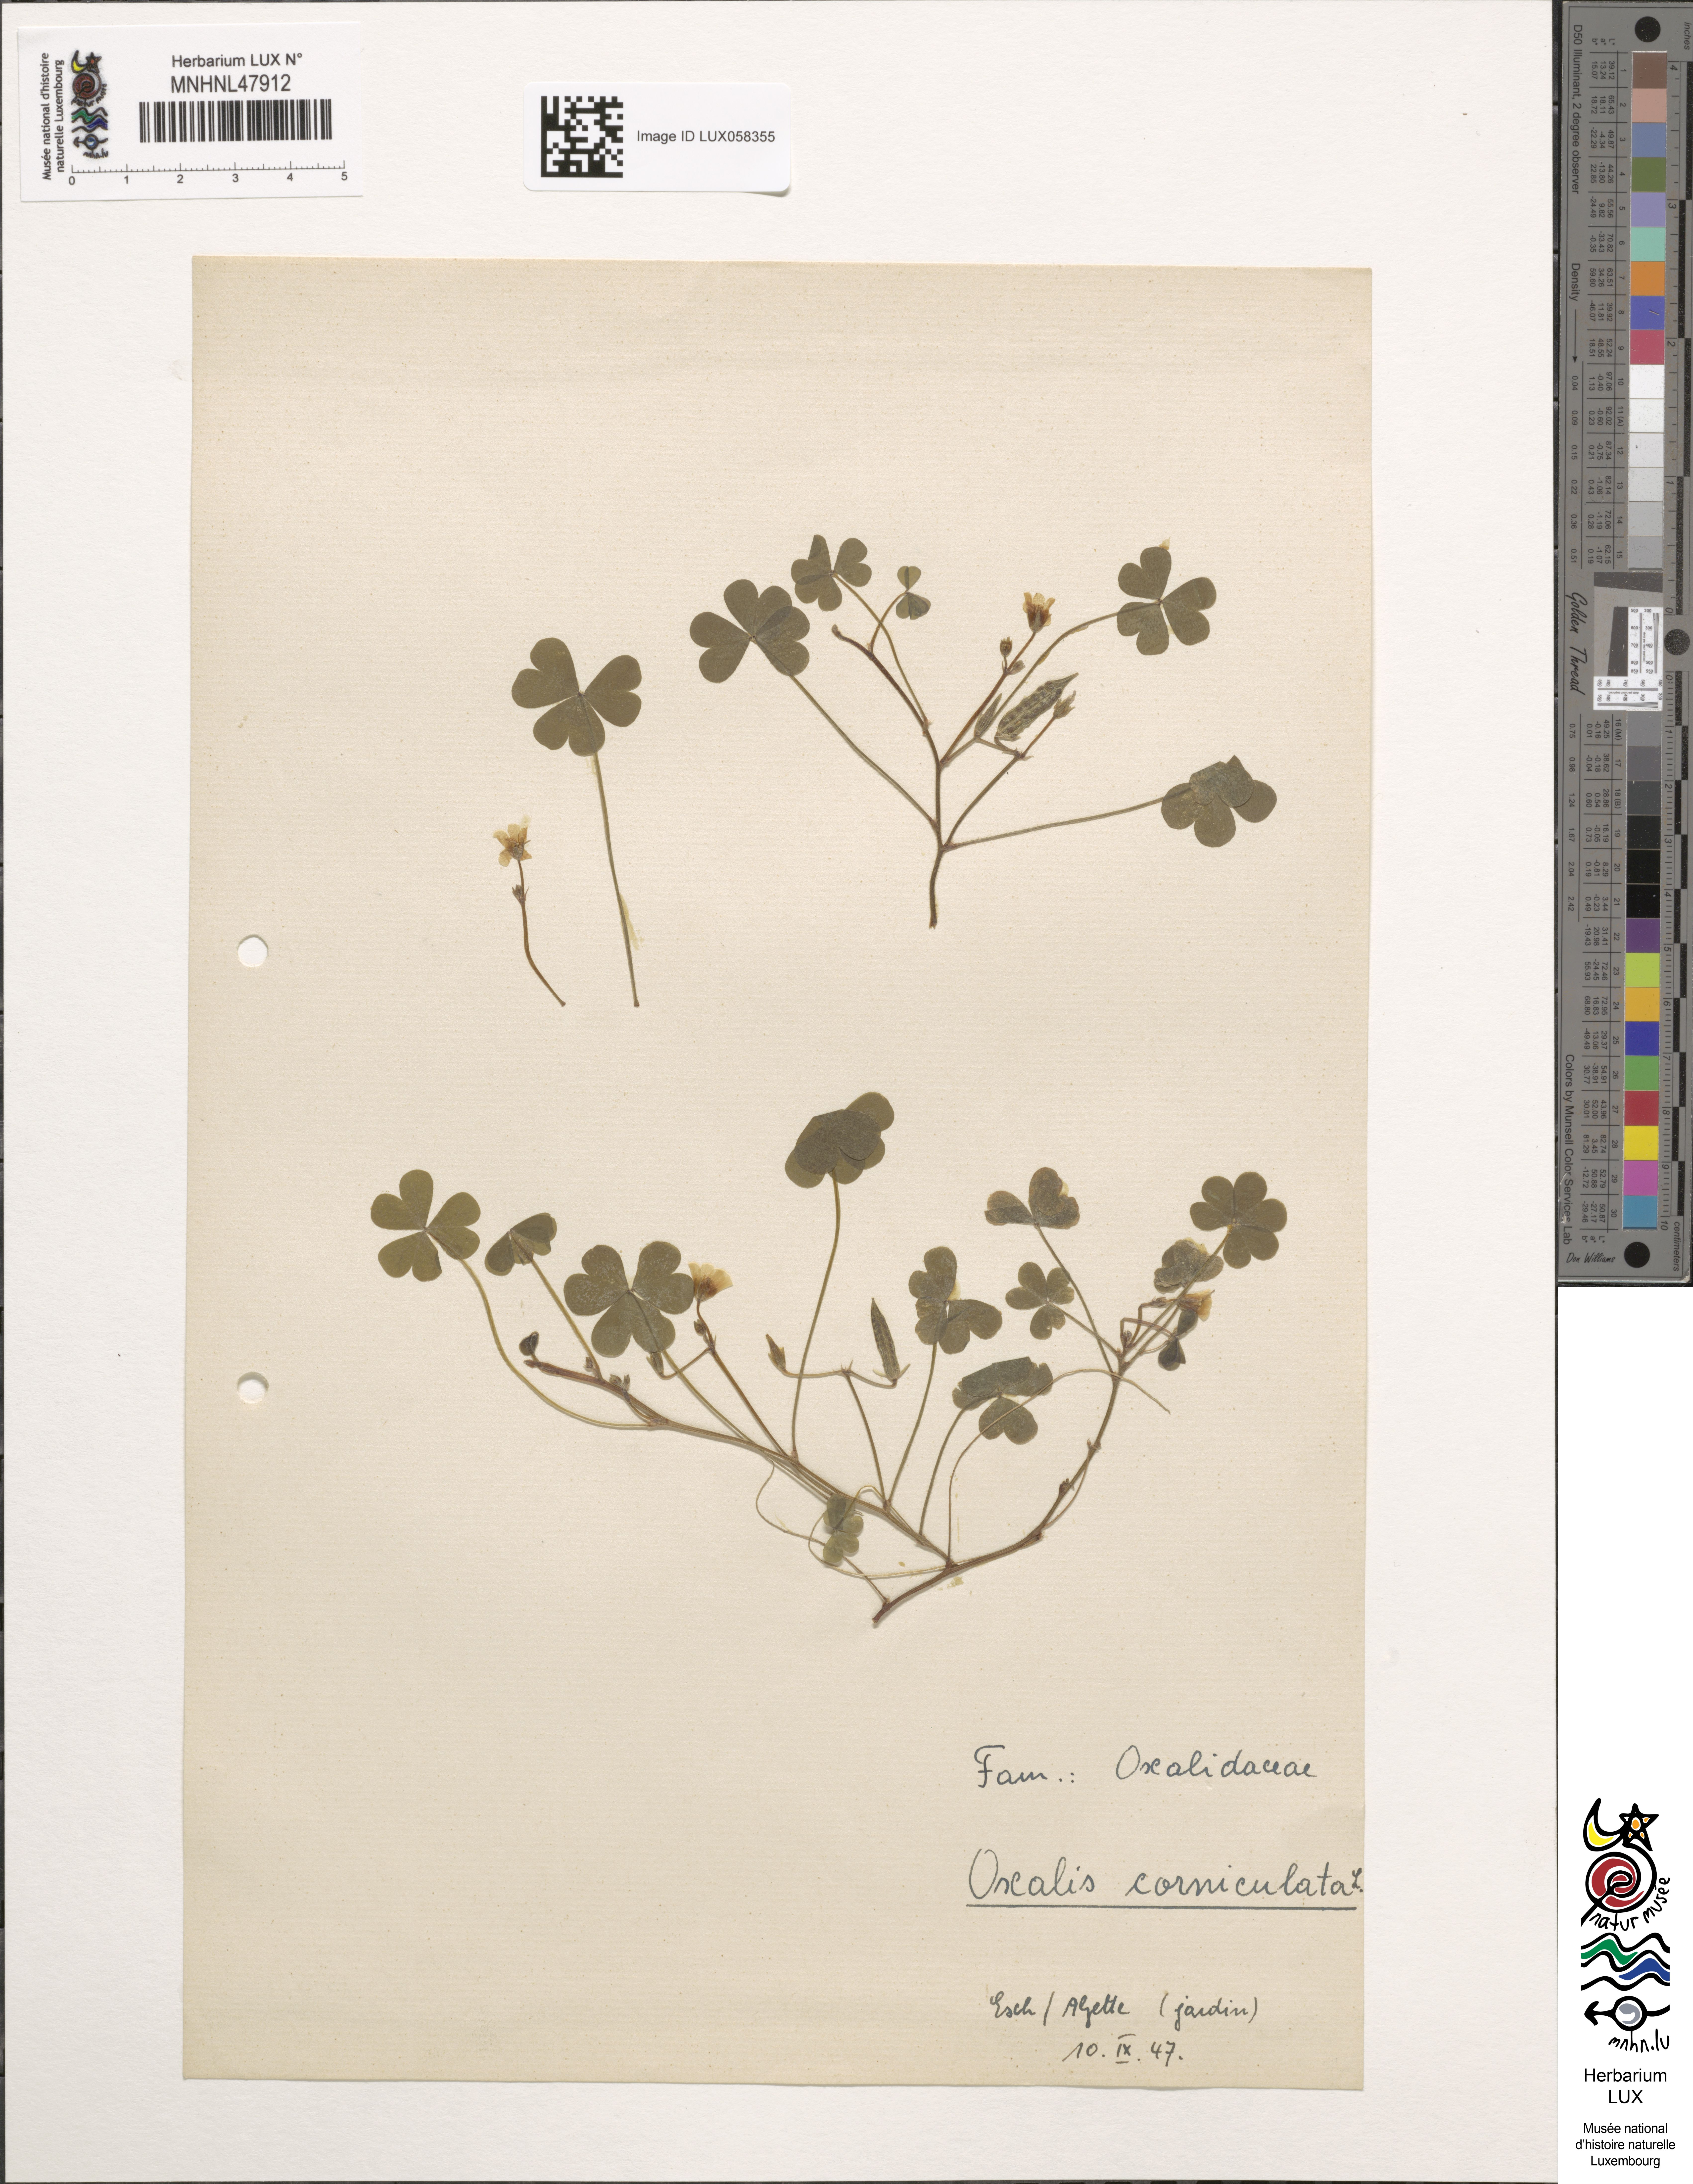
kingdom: Plantae
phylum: Tracheophyta
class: Magnoliopsida
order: Oxalidales
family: Oxalidaceae
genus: Oxalis
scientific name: Oxalis corniculata
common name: Procumbent yellow-sorrel
